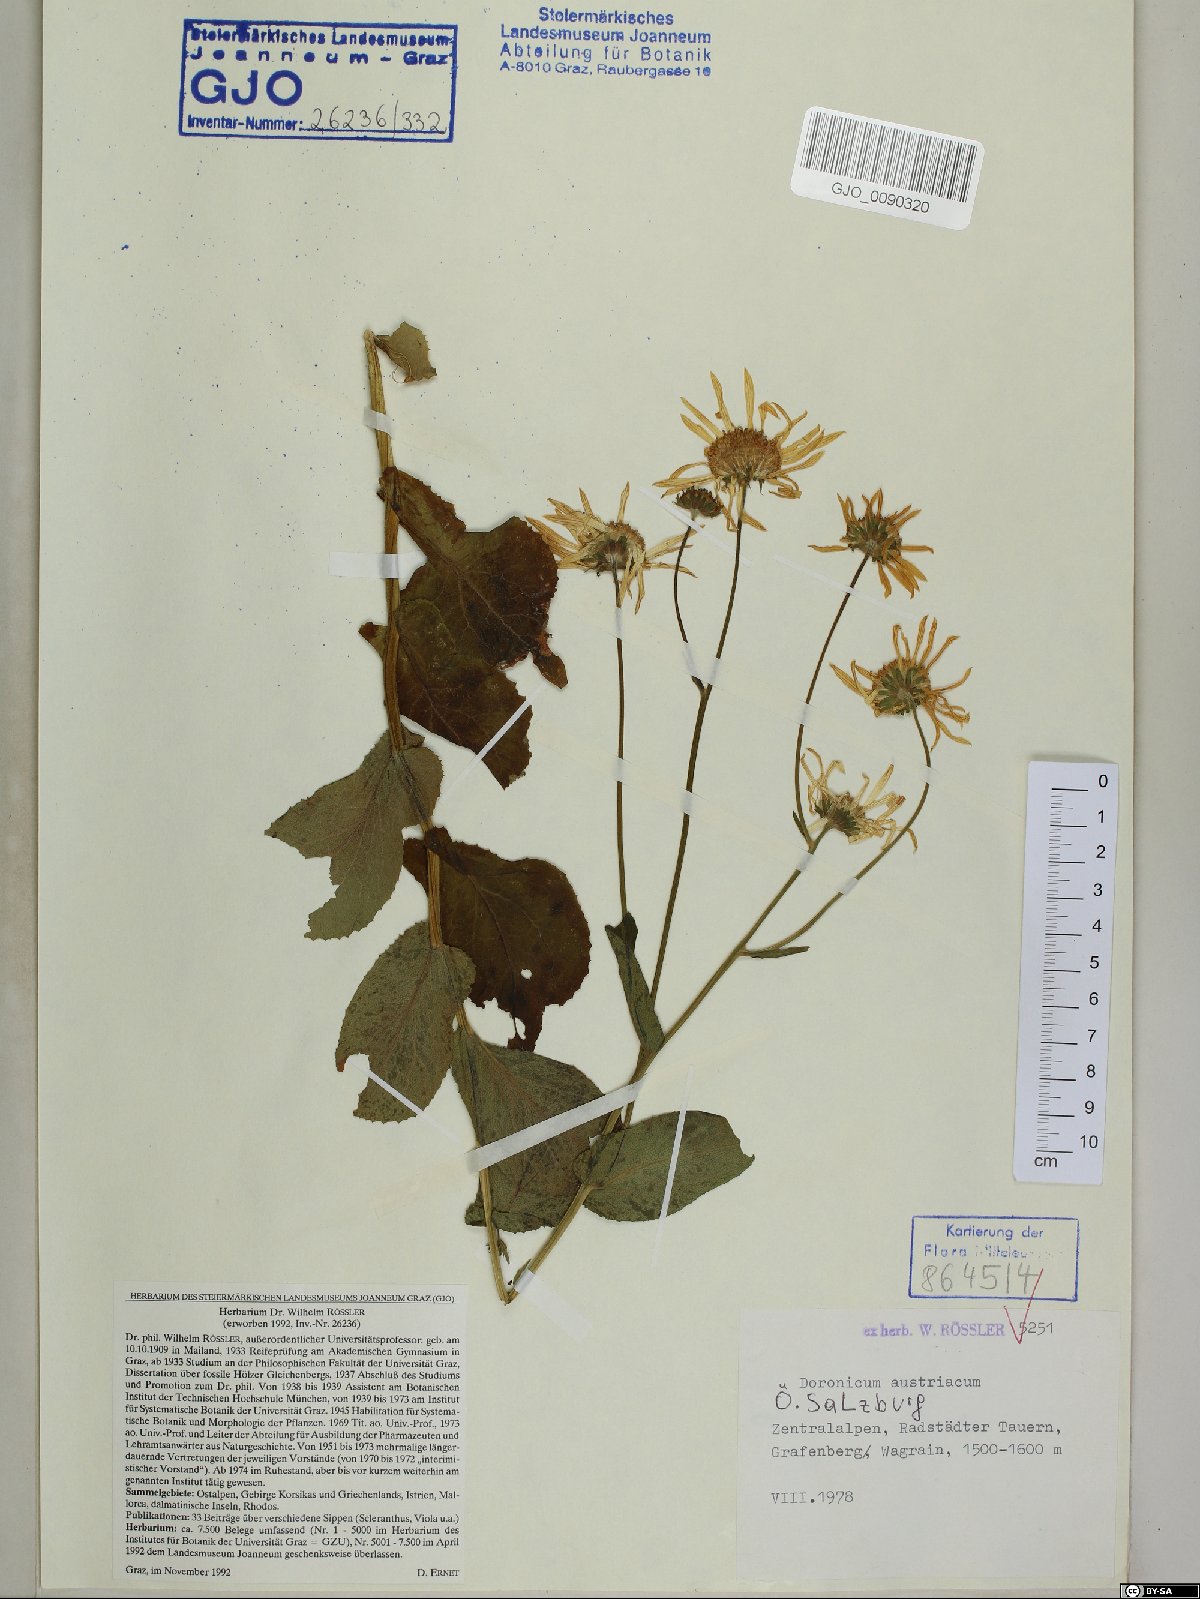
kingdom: Plantae
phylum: Tracheophyta
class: Magnoliopsida
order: Asterales
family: Asteraceae
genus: Doronicum
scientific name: Doronicum austriacum
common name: Austrian leopard's-bane
